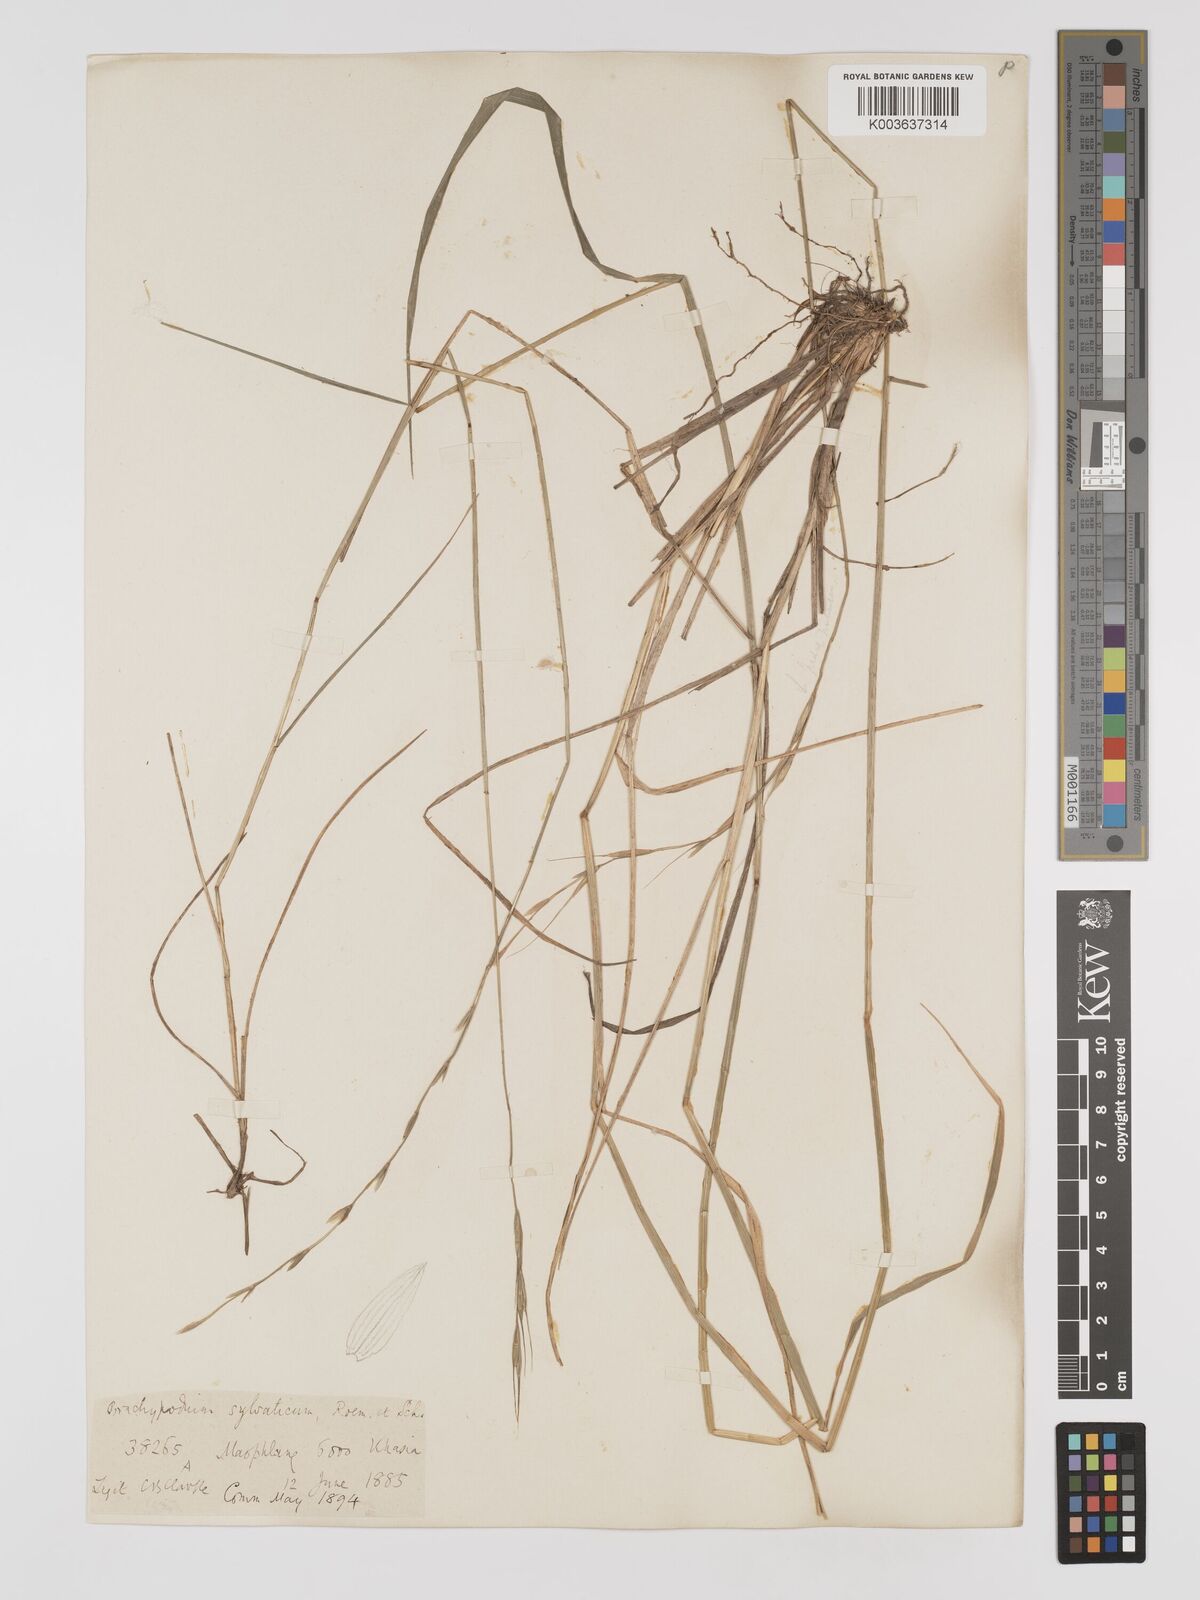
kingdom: Plantae
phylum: Tracheophyta
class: Liliopsida
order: Poales
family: Poaceae
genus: Brachypodium
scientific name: Brachypodium sylvaticum
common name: False-brome
